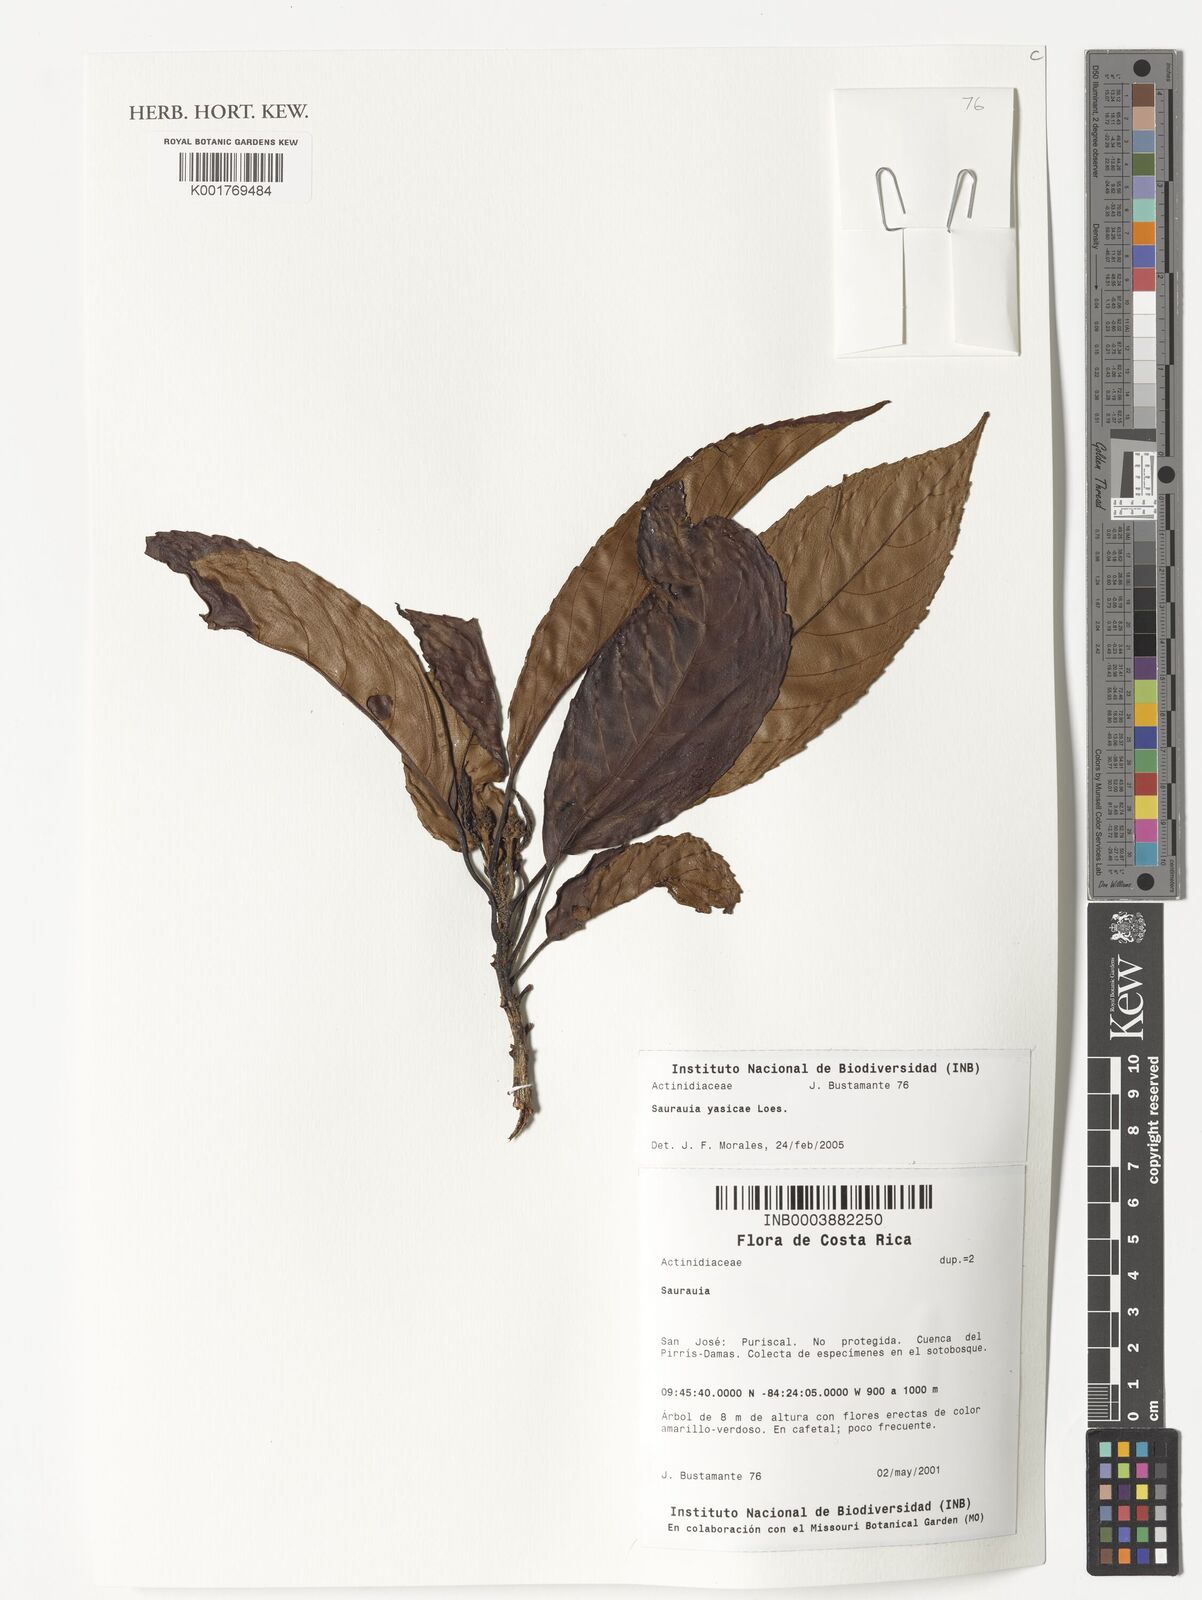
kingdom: Plantae
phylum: Tracheophyta
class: Magnoliopsida
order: Ericales
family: Actinidiaceae
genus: Saurauia
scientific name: Saurauia yasicae
